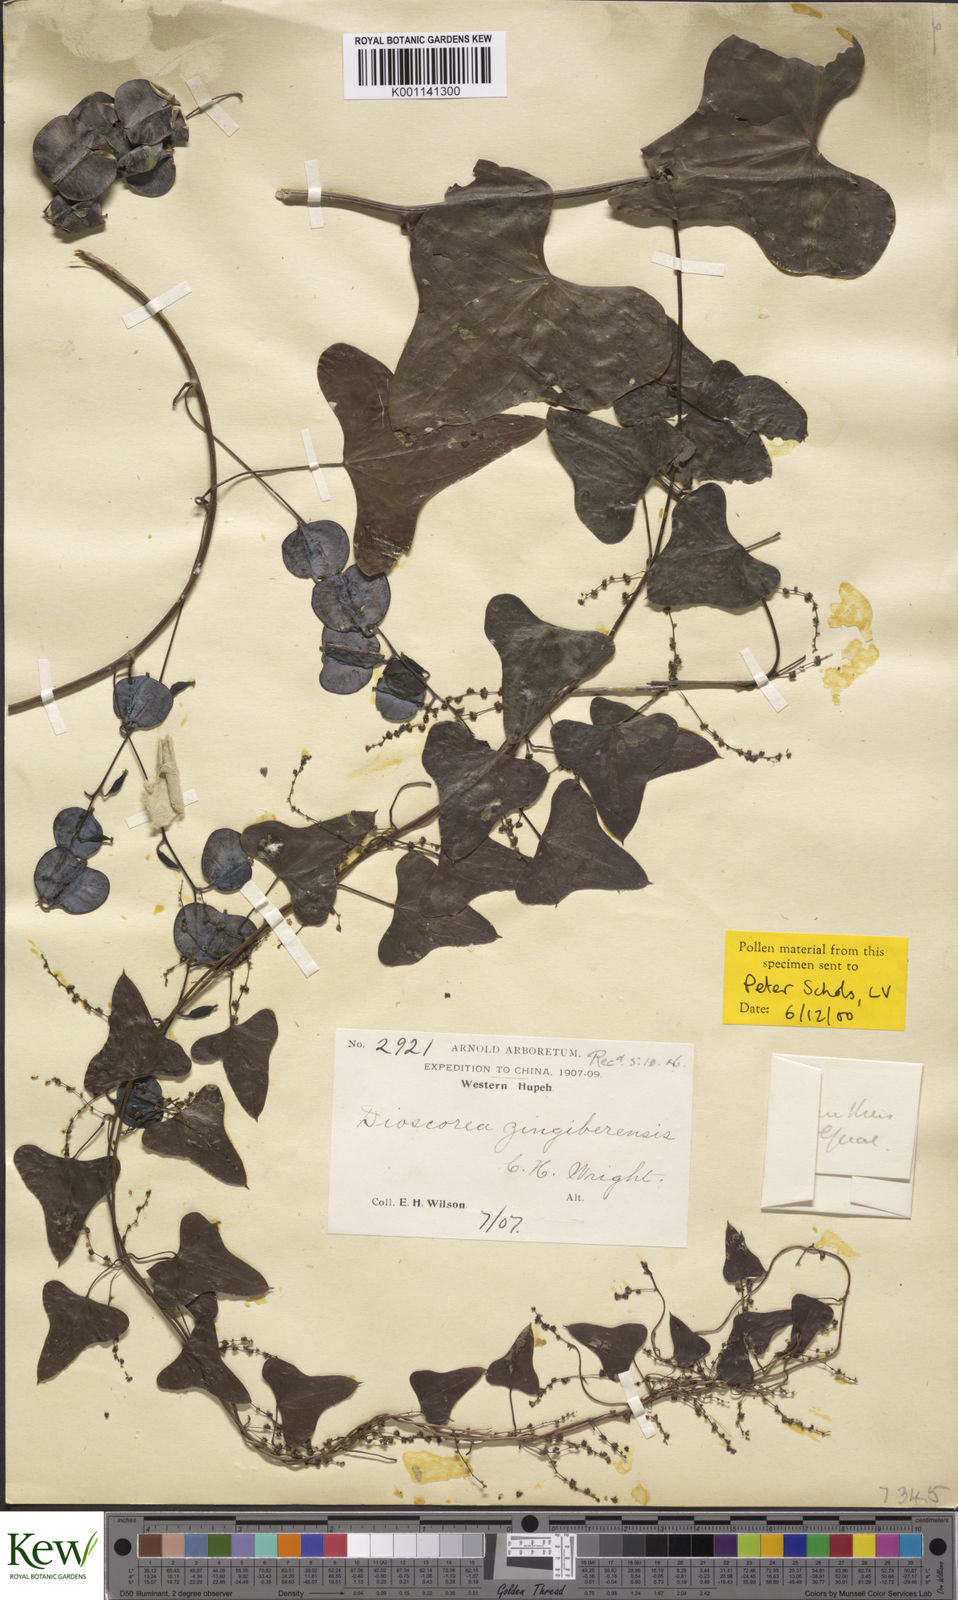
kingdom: Plantae
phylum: Tracheophyta
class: Liliopsida
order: Dioscoreales
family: Dioscoreaceae
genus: Dioscorea
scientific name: Dioscorea zingiberensis
